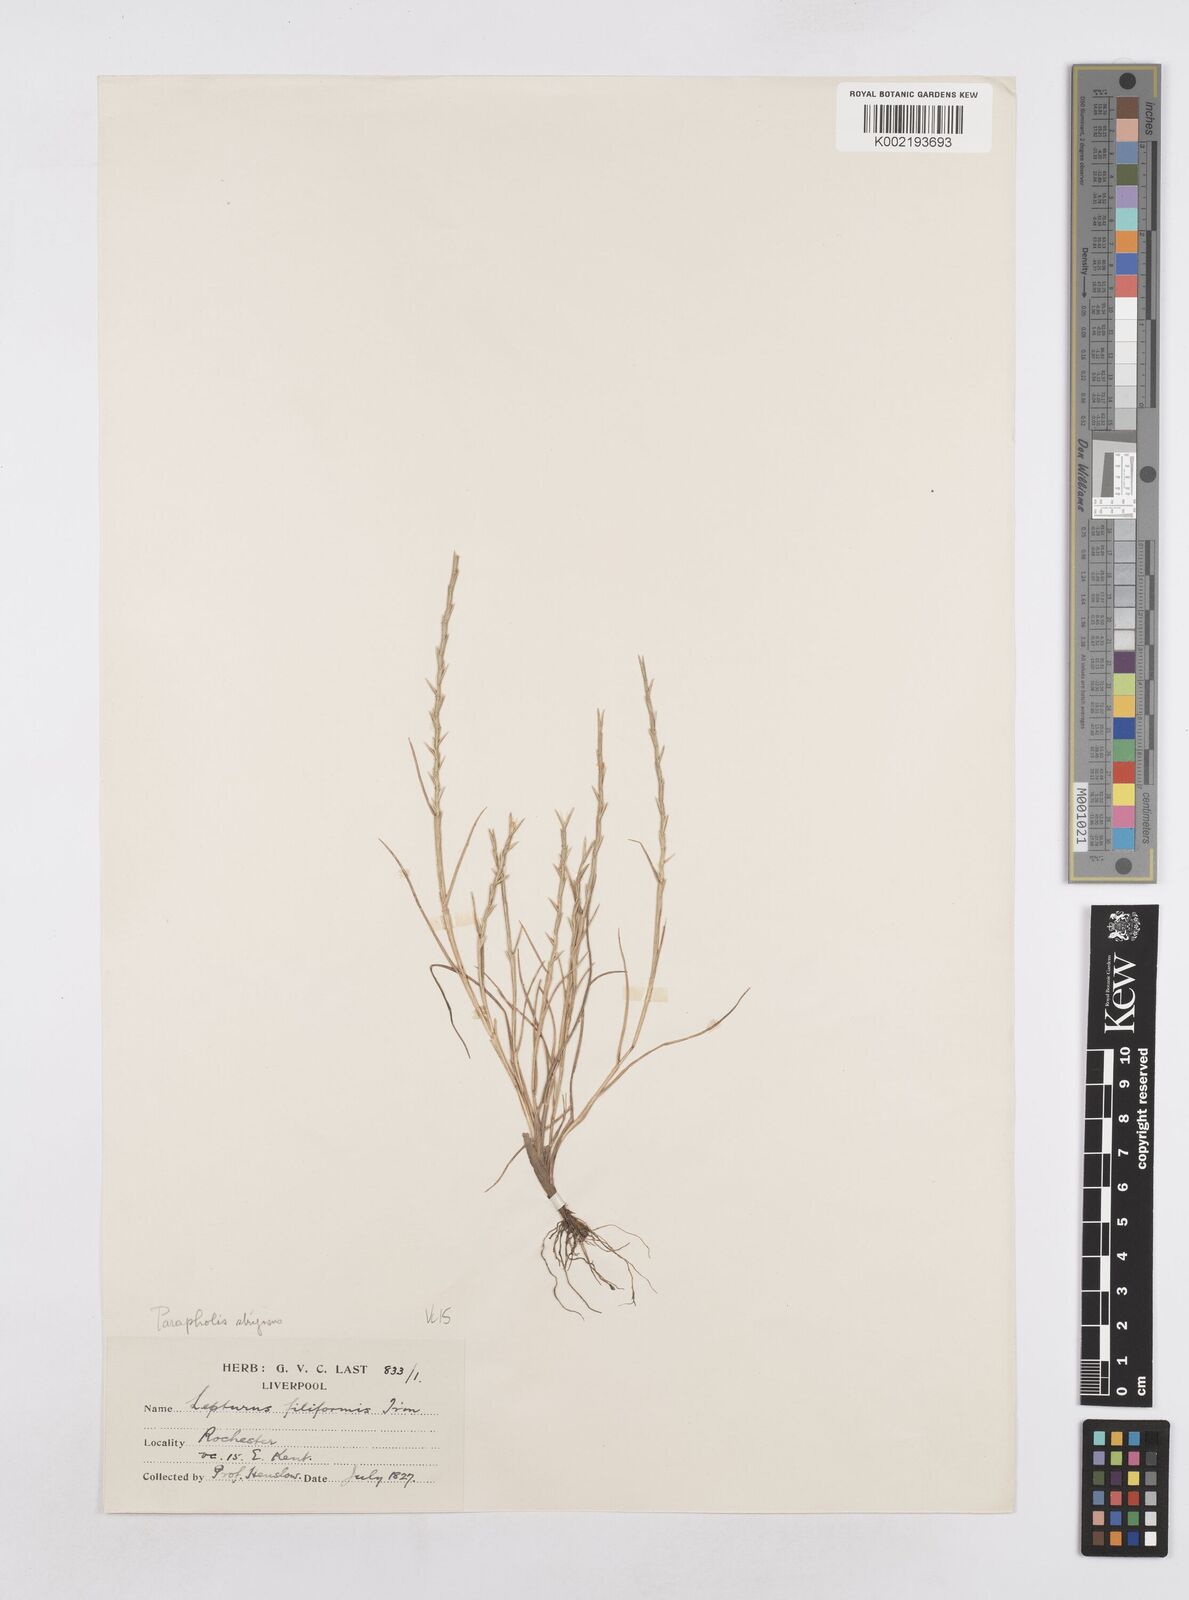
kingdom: Plantae
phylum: Tracheophyta
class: Liliopsida
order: Poales
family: Poaceae
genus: Parapholis
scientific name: Parapholis strigosa
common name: Hard-grass
